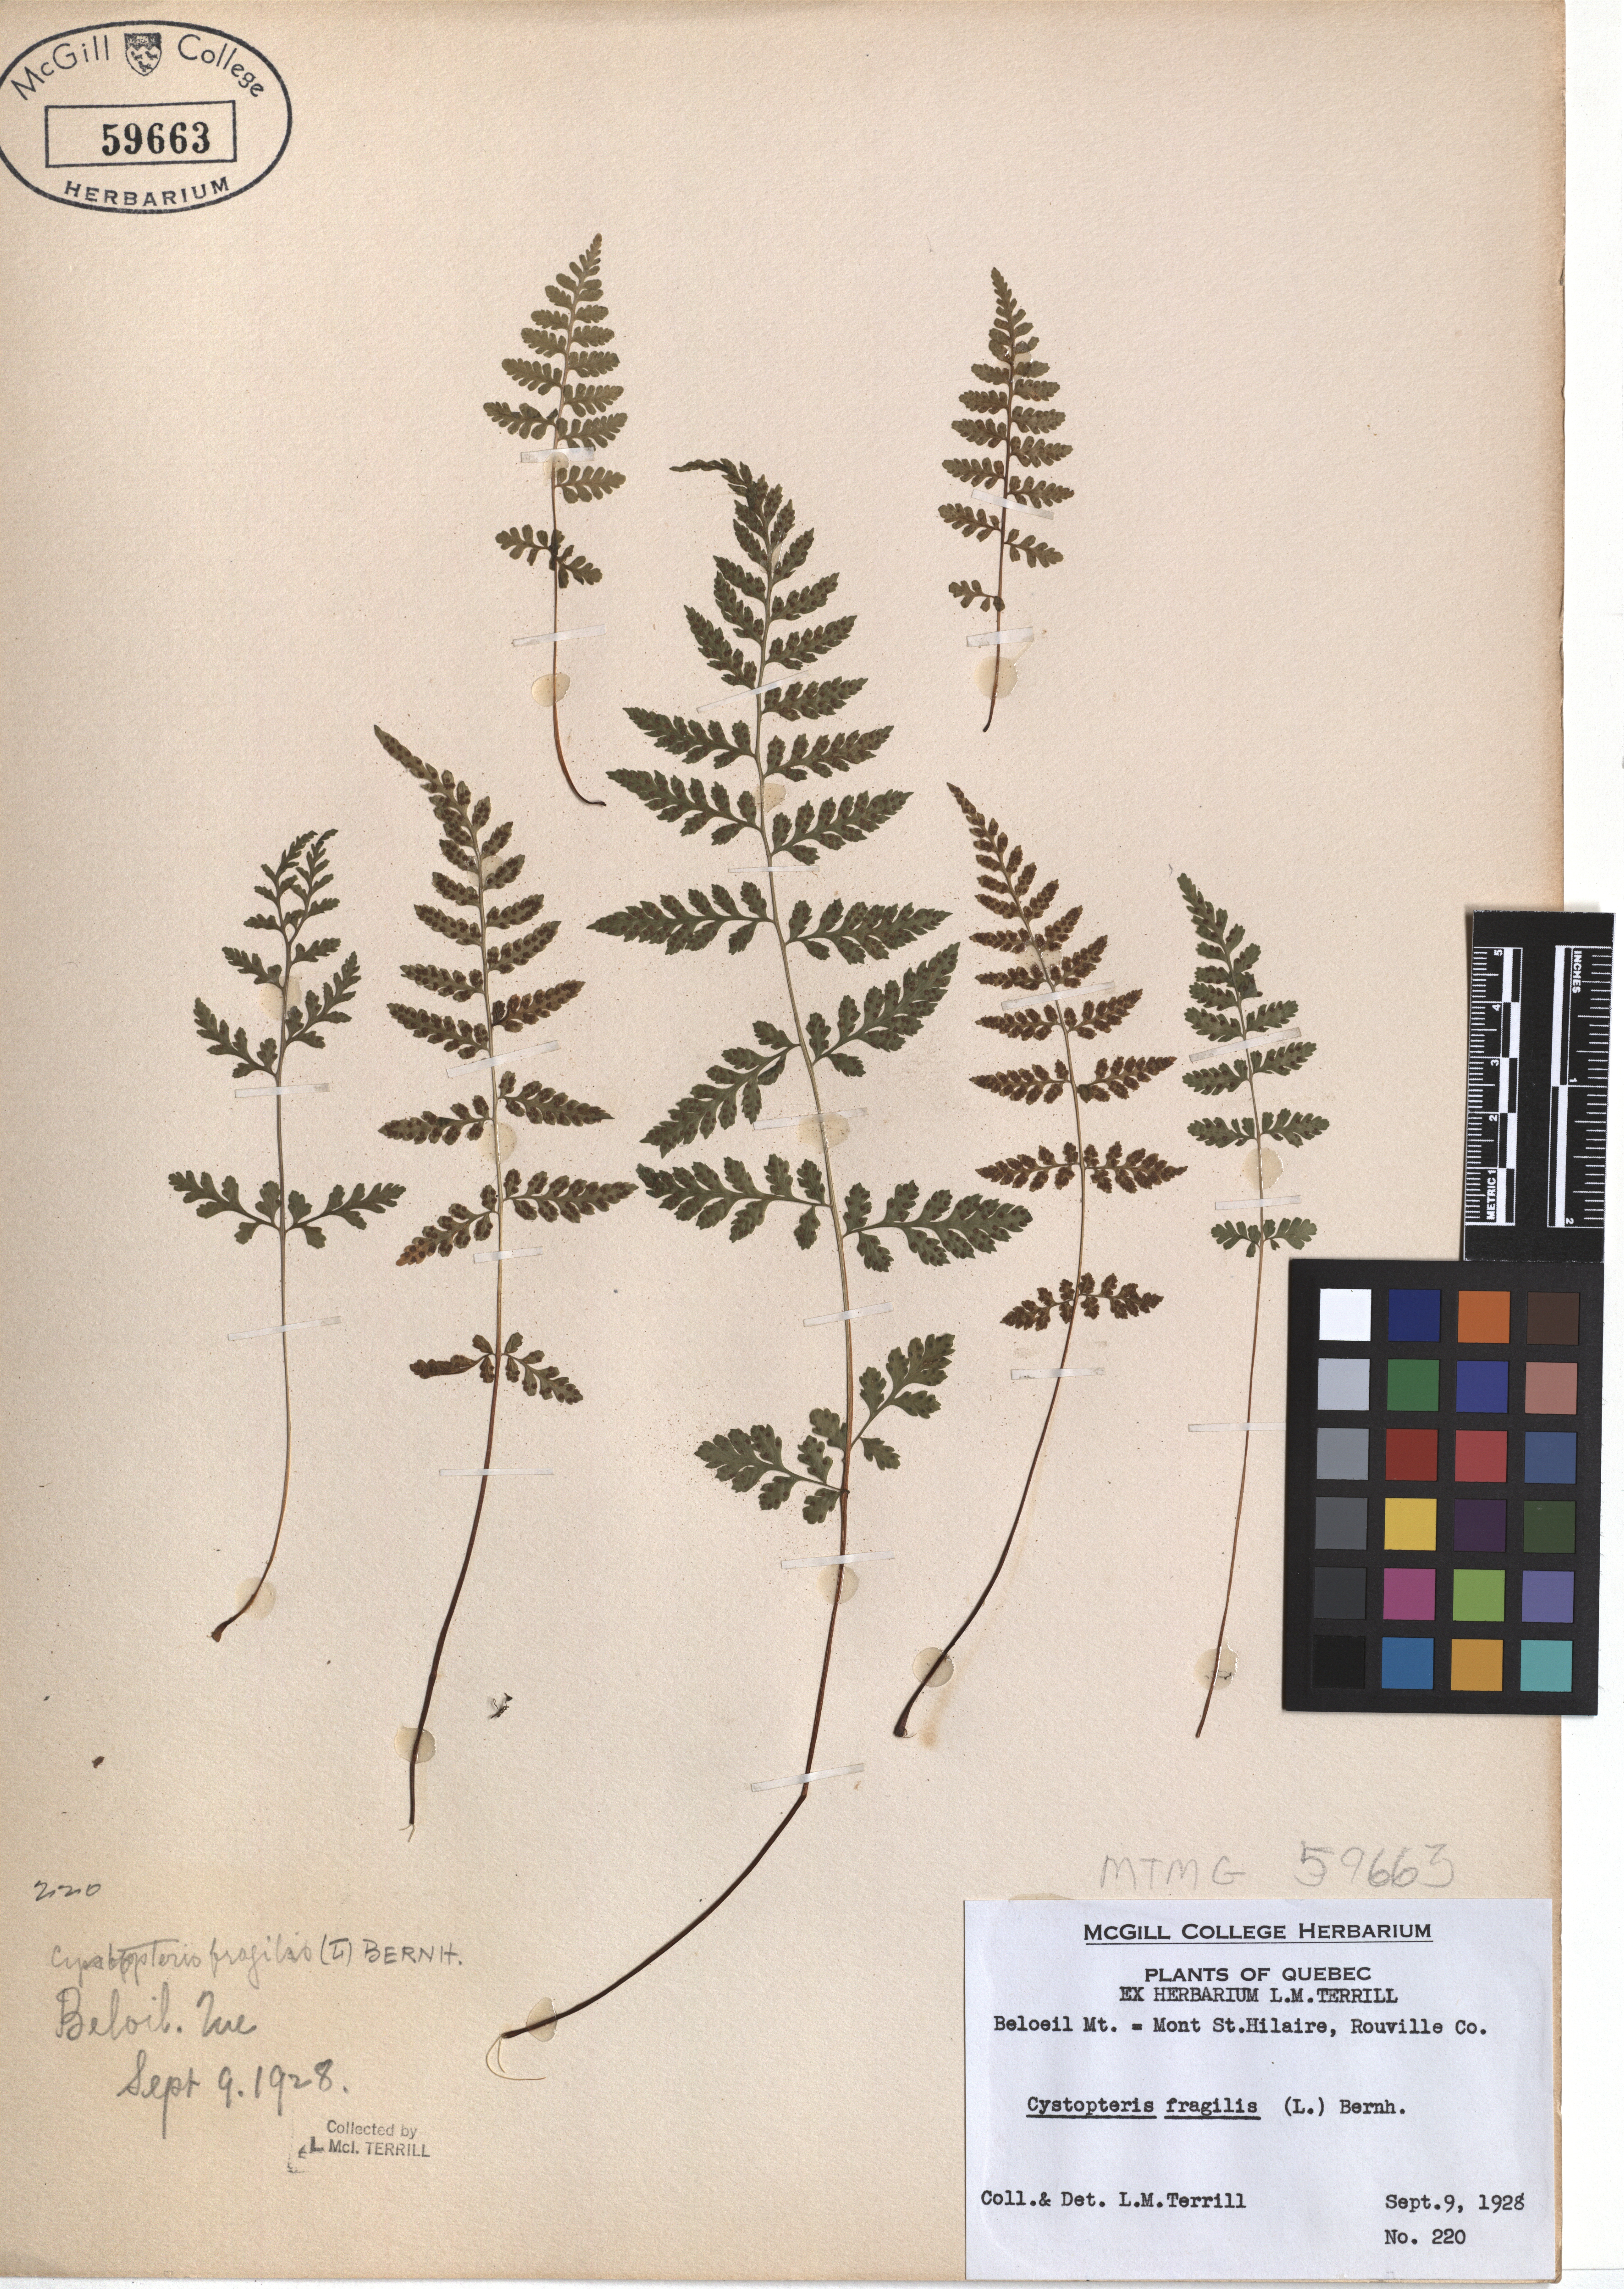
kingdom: Plantae
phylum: Tracheophyta
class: Polypodiopsida
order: Polypodiales
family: Cystopteridaceae
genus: Cystopteris
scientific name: Cystopteris fragilis
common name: Brittle bladder fern
